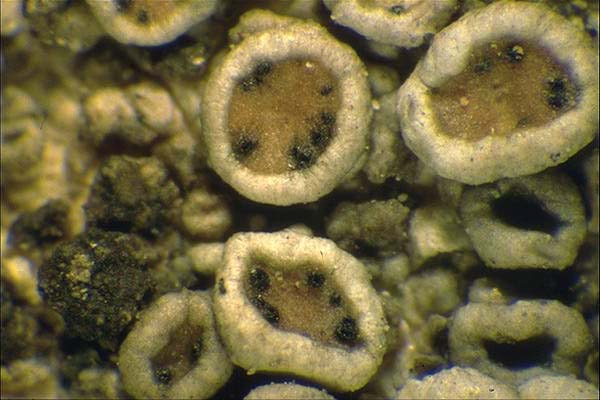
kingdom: Fungi
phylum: Ascomycota
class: Dothideomycetes
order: Pleosporales
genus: Vouauxiella
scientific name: Vouauxiella lichenicola
